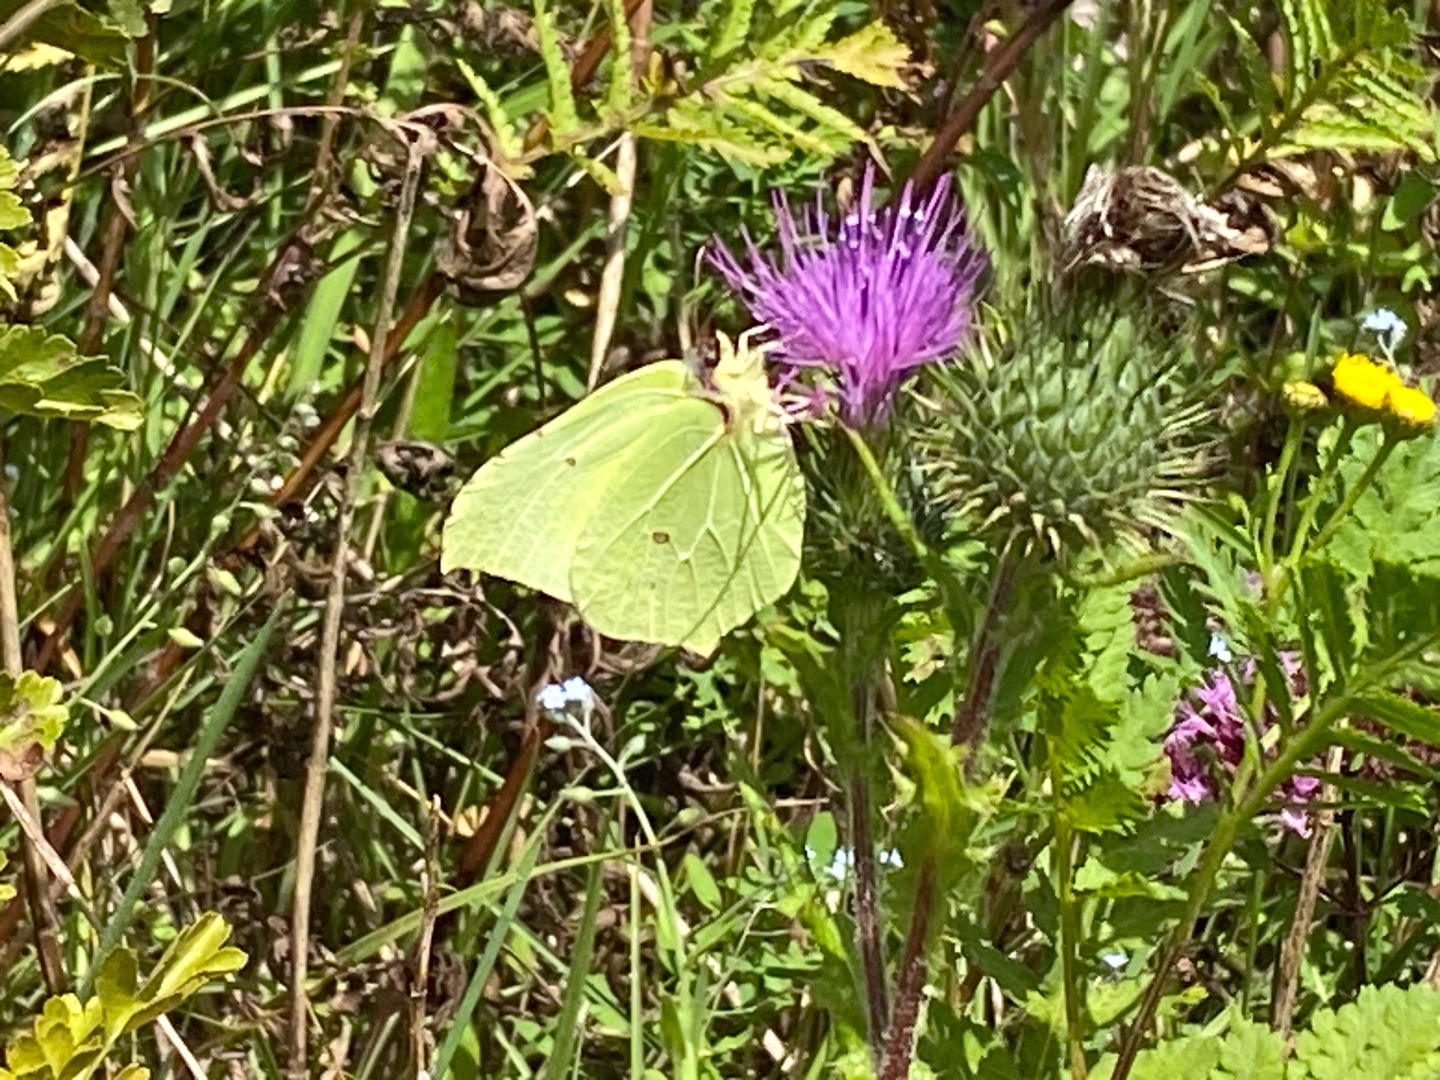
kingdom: Animalia
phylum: Arthropoda
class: Insecta
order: Lepidoptera
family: Pieridae
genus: Gonepteryx
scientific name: Gonepteryx rhamni
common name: Citronsommerfugl
